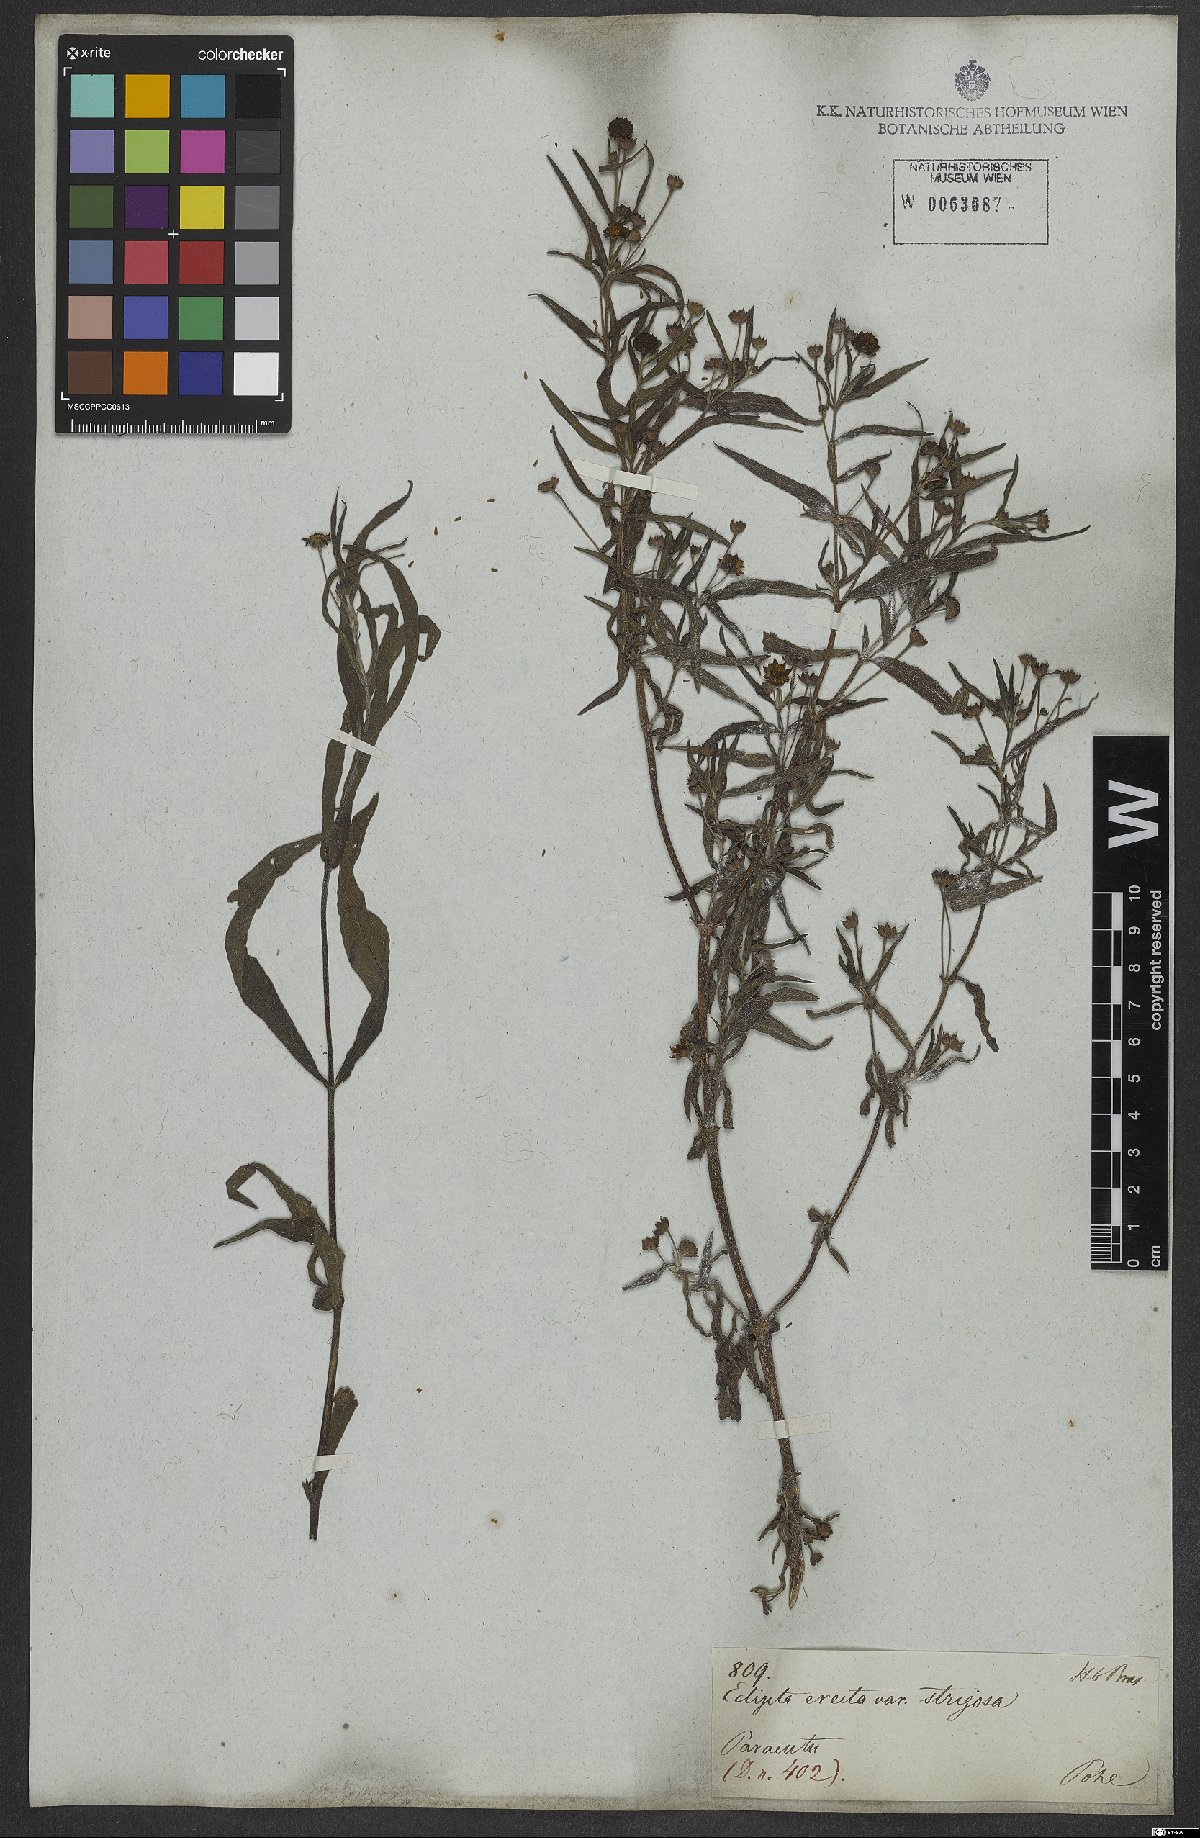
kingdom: Plantae
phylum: Tracheophyta
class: Magnoliopsida
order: Asterales
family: Asteraceae
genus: Eclipta
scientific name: Eclipta alba
